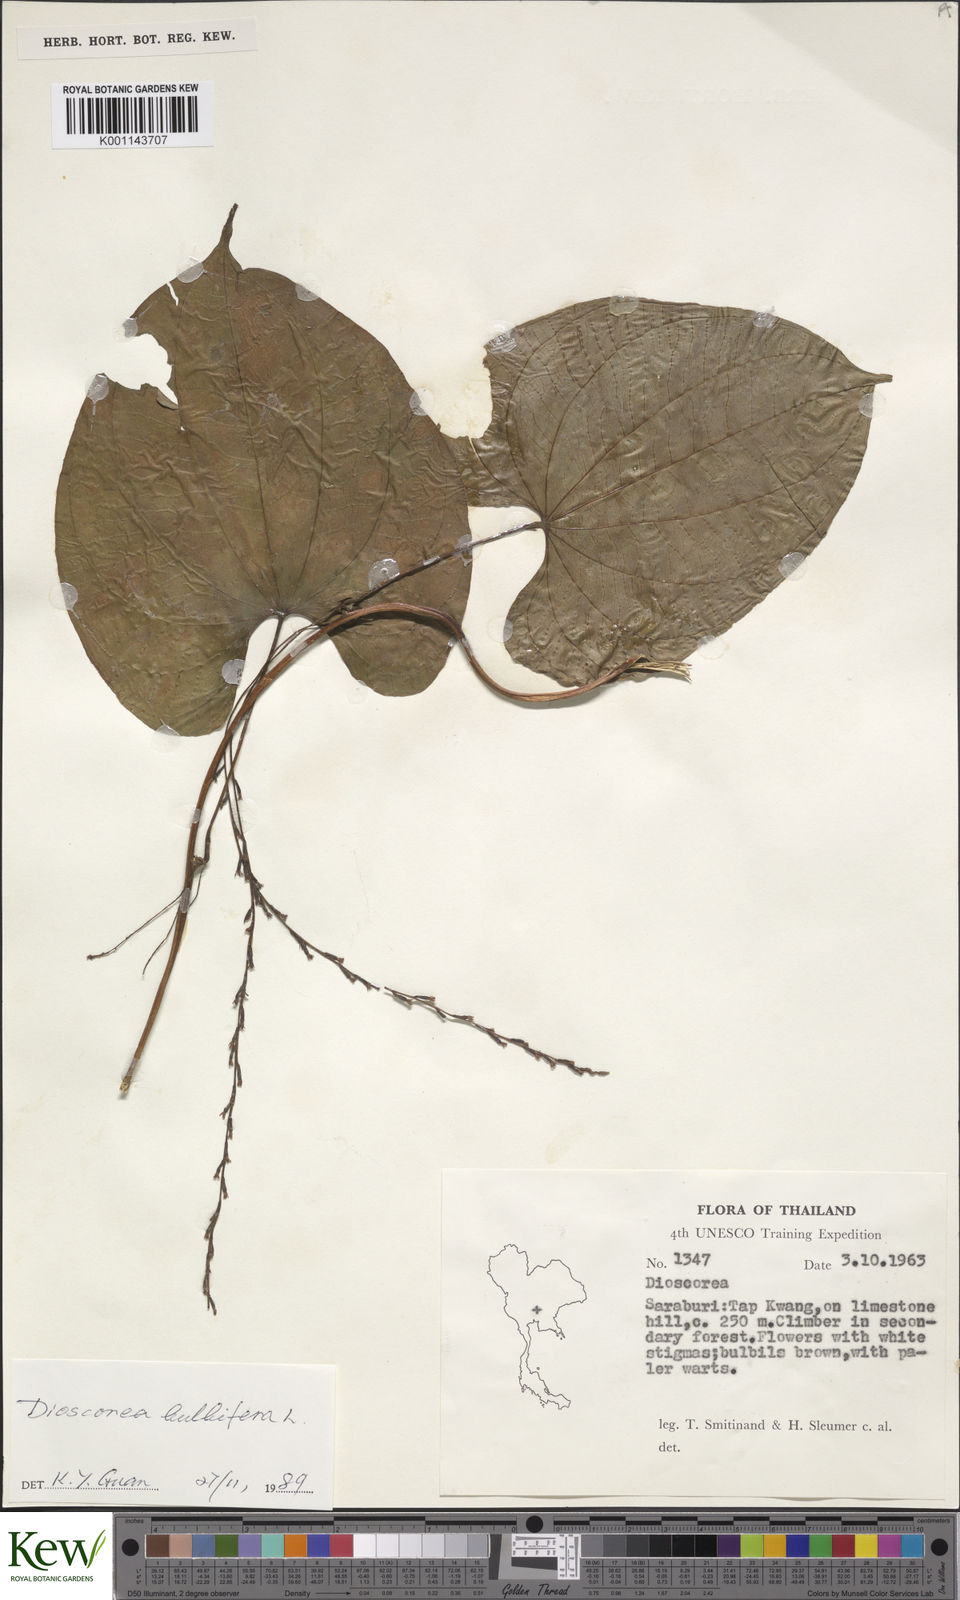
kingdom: Plantae
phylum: Tracheophyta
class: Liliopsida
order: Dioscoreales
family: Dioscoreaceae
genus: Dioscorea
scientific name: Dioscorea bulbifera
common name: Air yam
